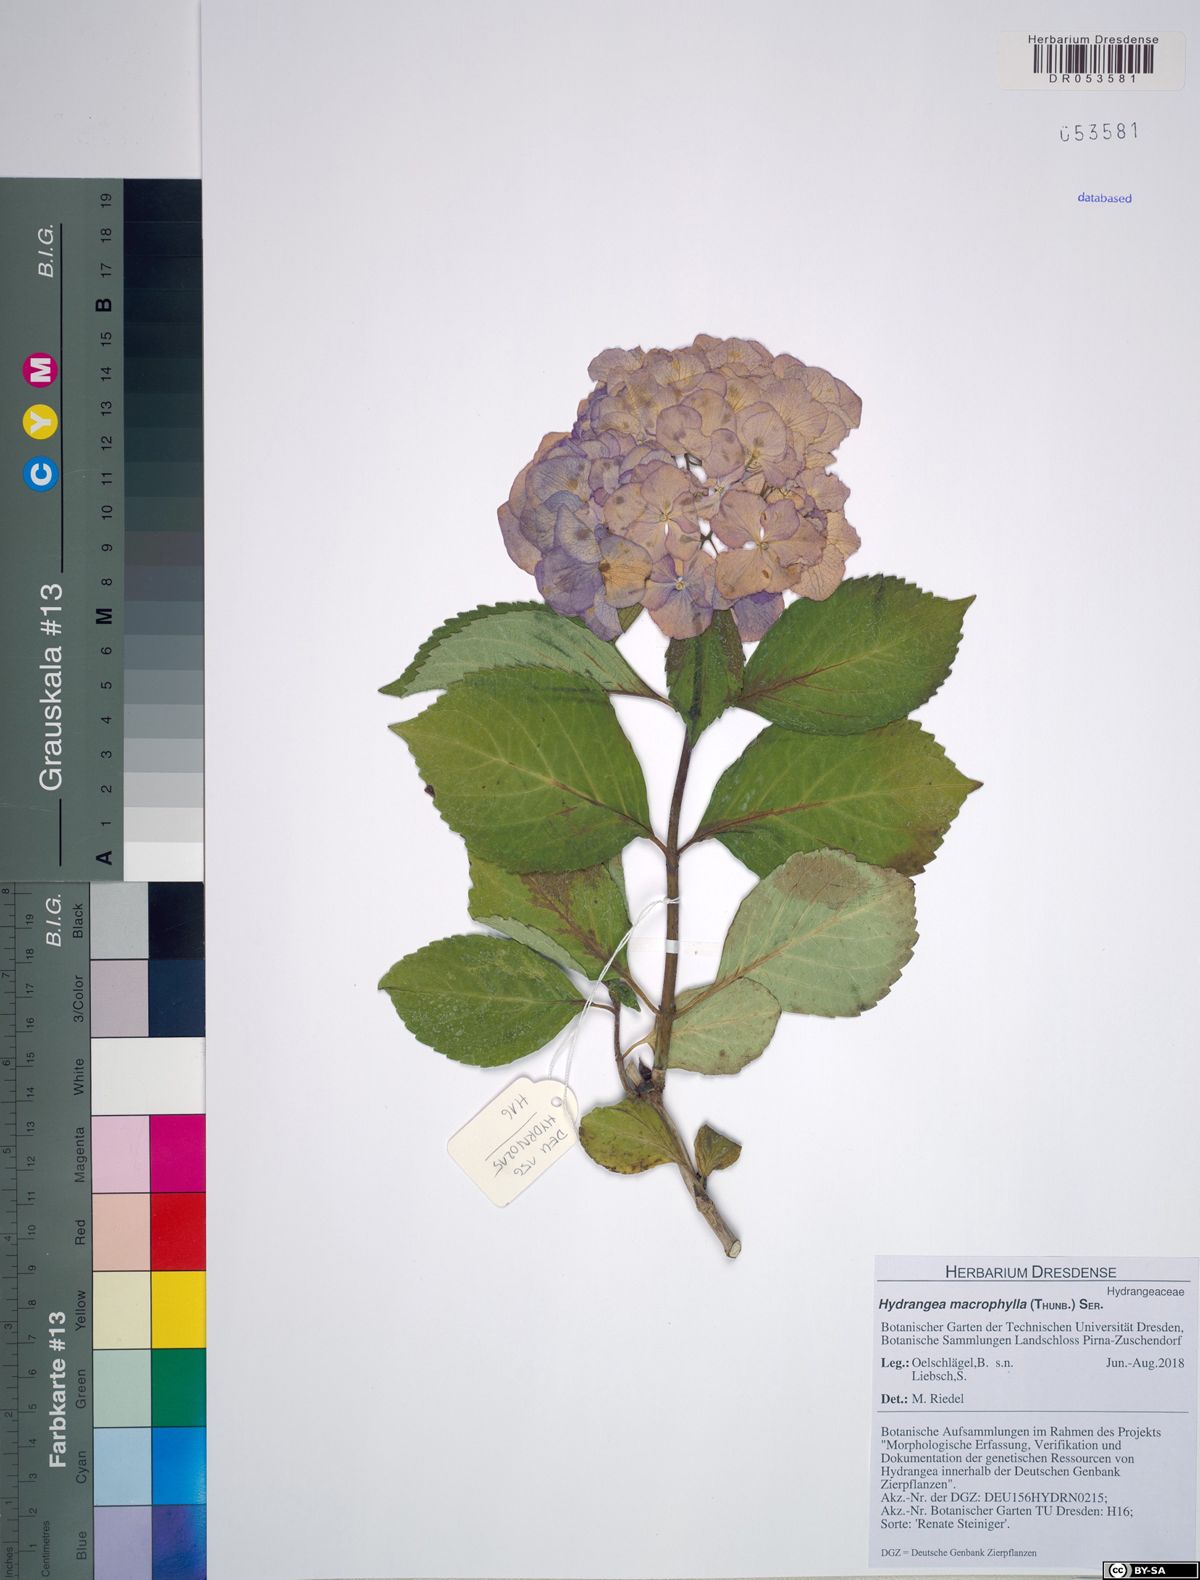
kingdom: Plantae
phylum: Tracheophyta
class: Magnoliopsida
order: Cornales
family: Hydrangeaceae
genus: Hydrangea
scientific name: Hydrangea macrophylla
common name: Hydrangea
